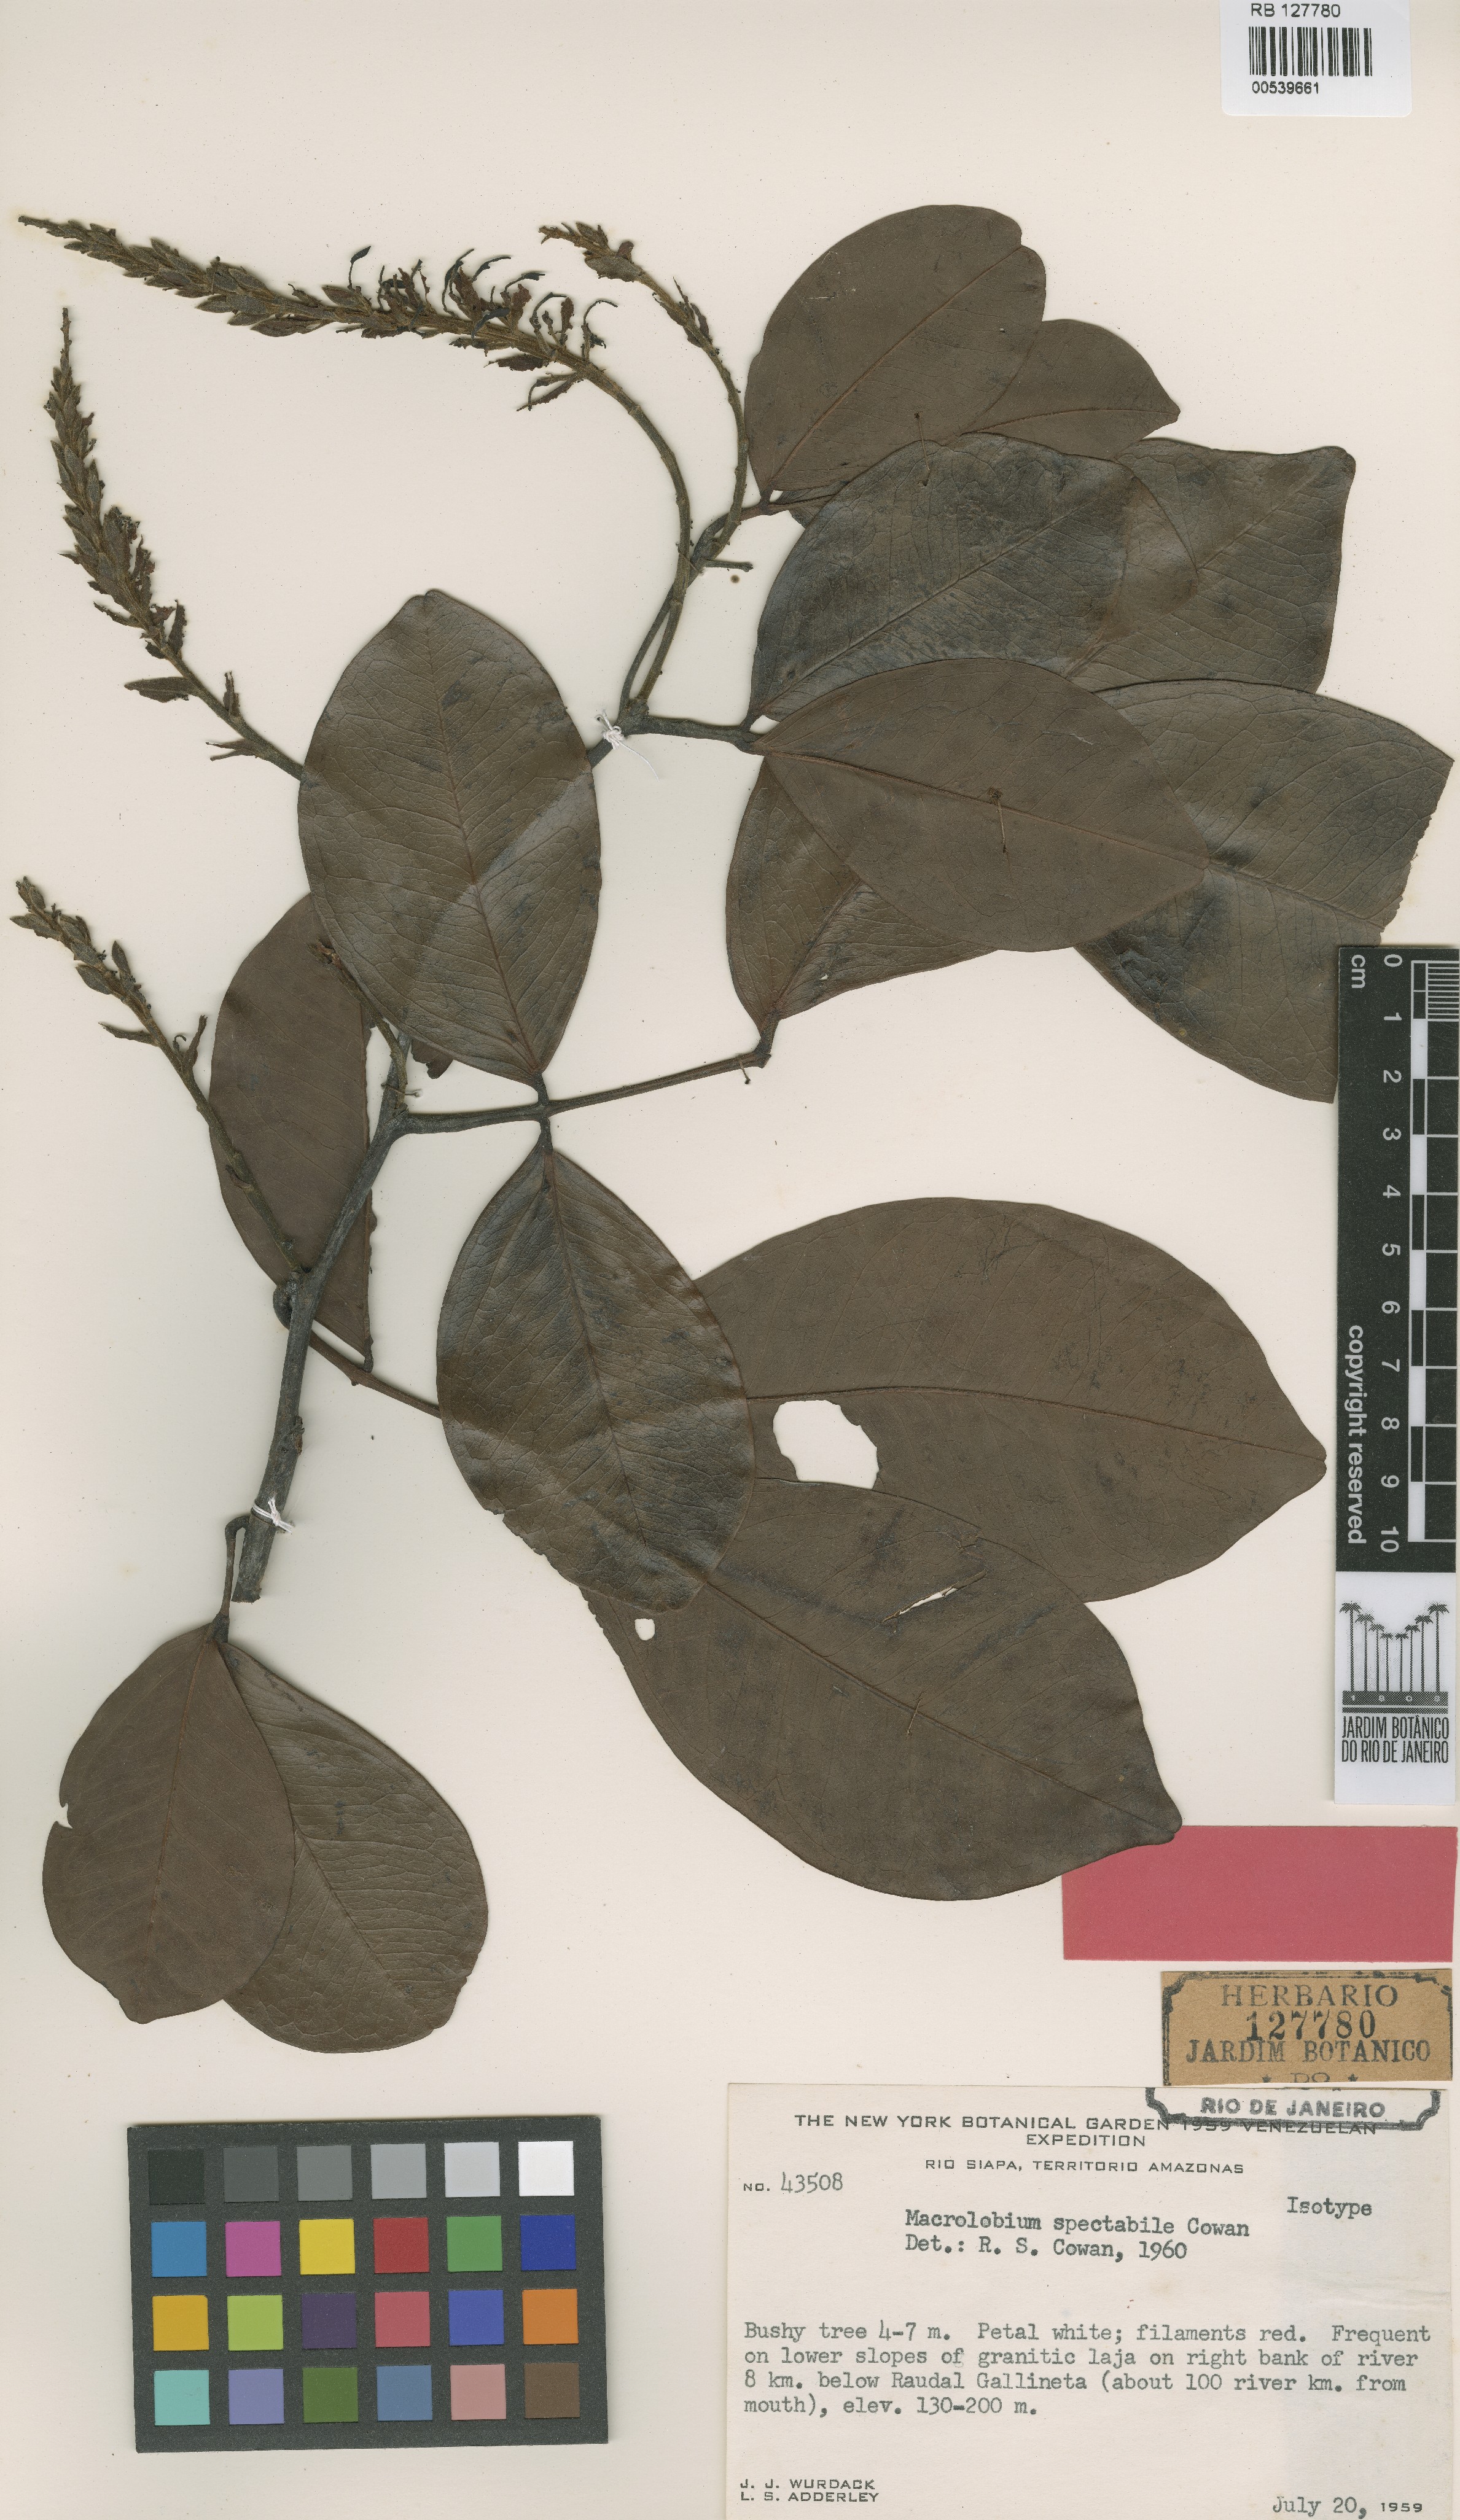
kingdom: Plantae
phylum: Tracheophyta
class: Magnoliopsida
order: Fabales
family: Fabaceae
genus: Macrolobium
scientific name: Macrolobium spectabile
